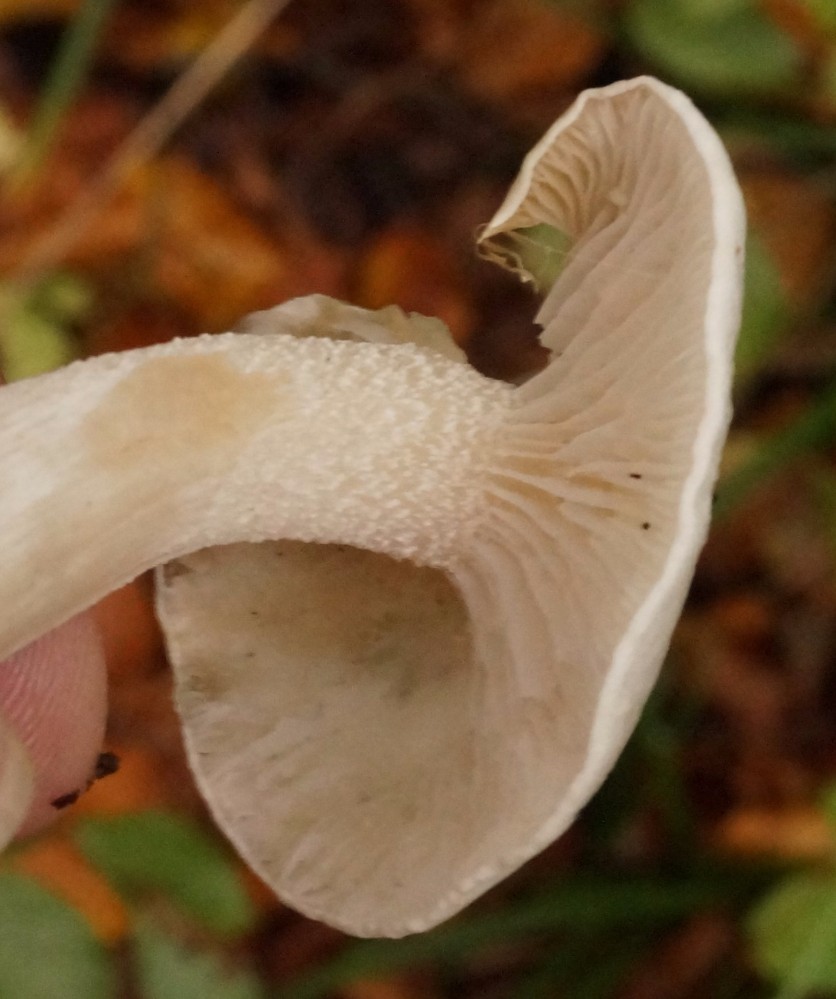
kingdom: Fungi
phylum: Basidiomycota
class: Agaricomycetes
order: Agaricales
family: Hygrophoraceae
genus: Hygrophorus
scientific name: Hygrophorus
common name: sneglehat
